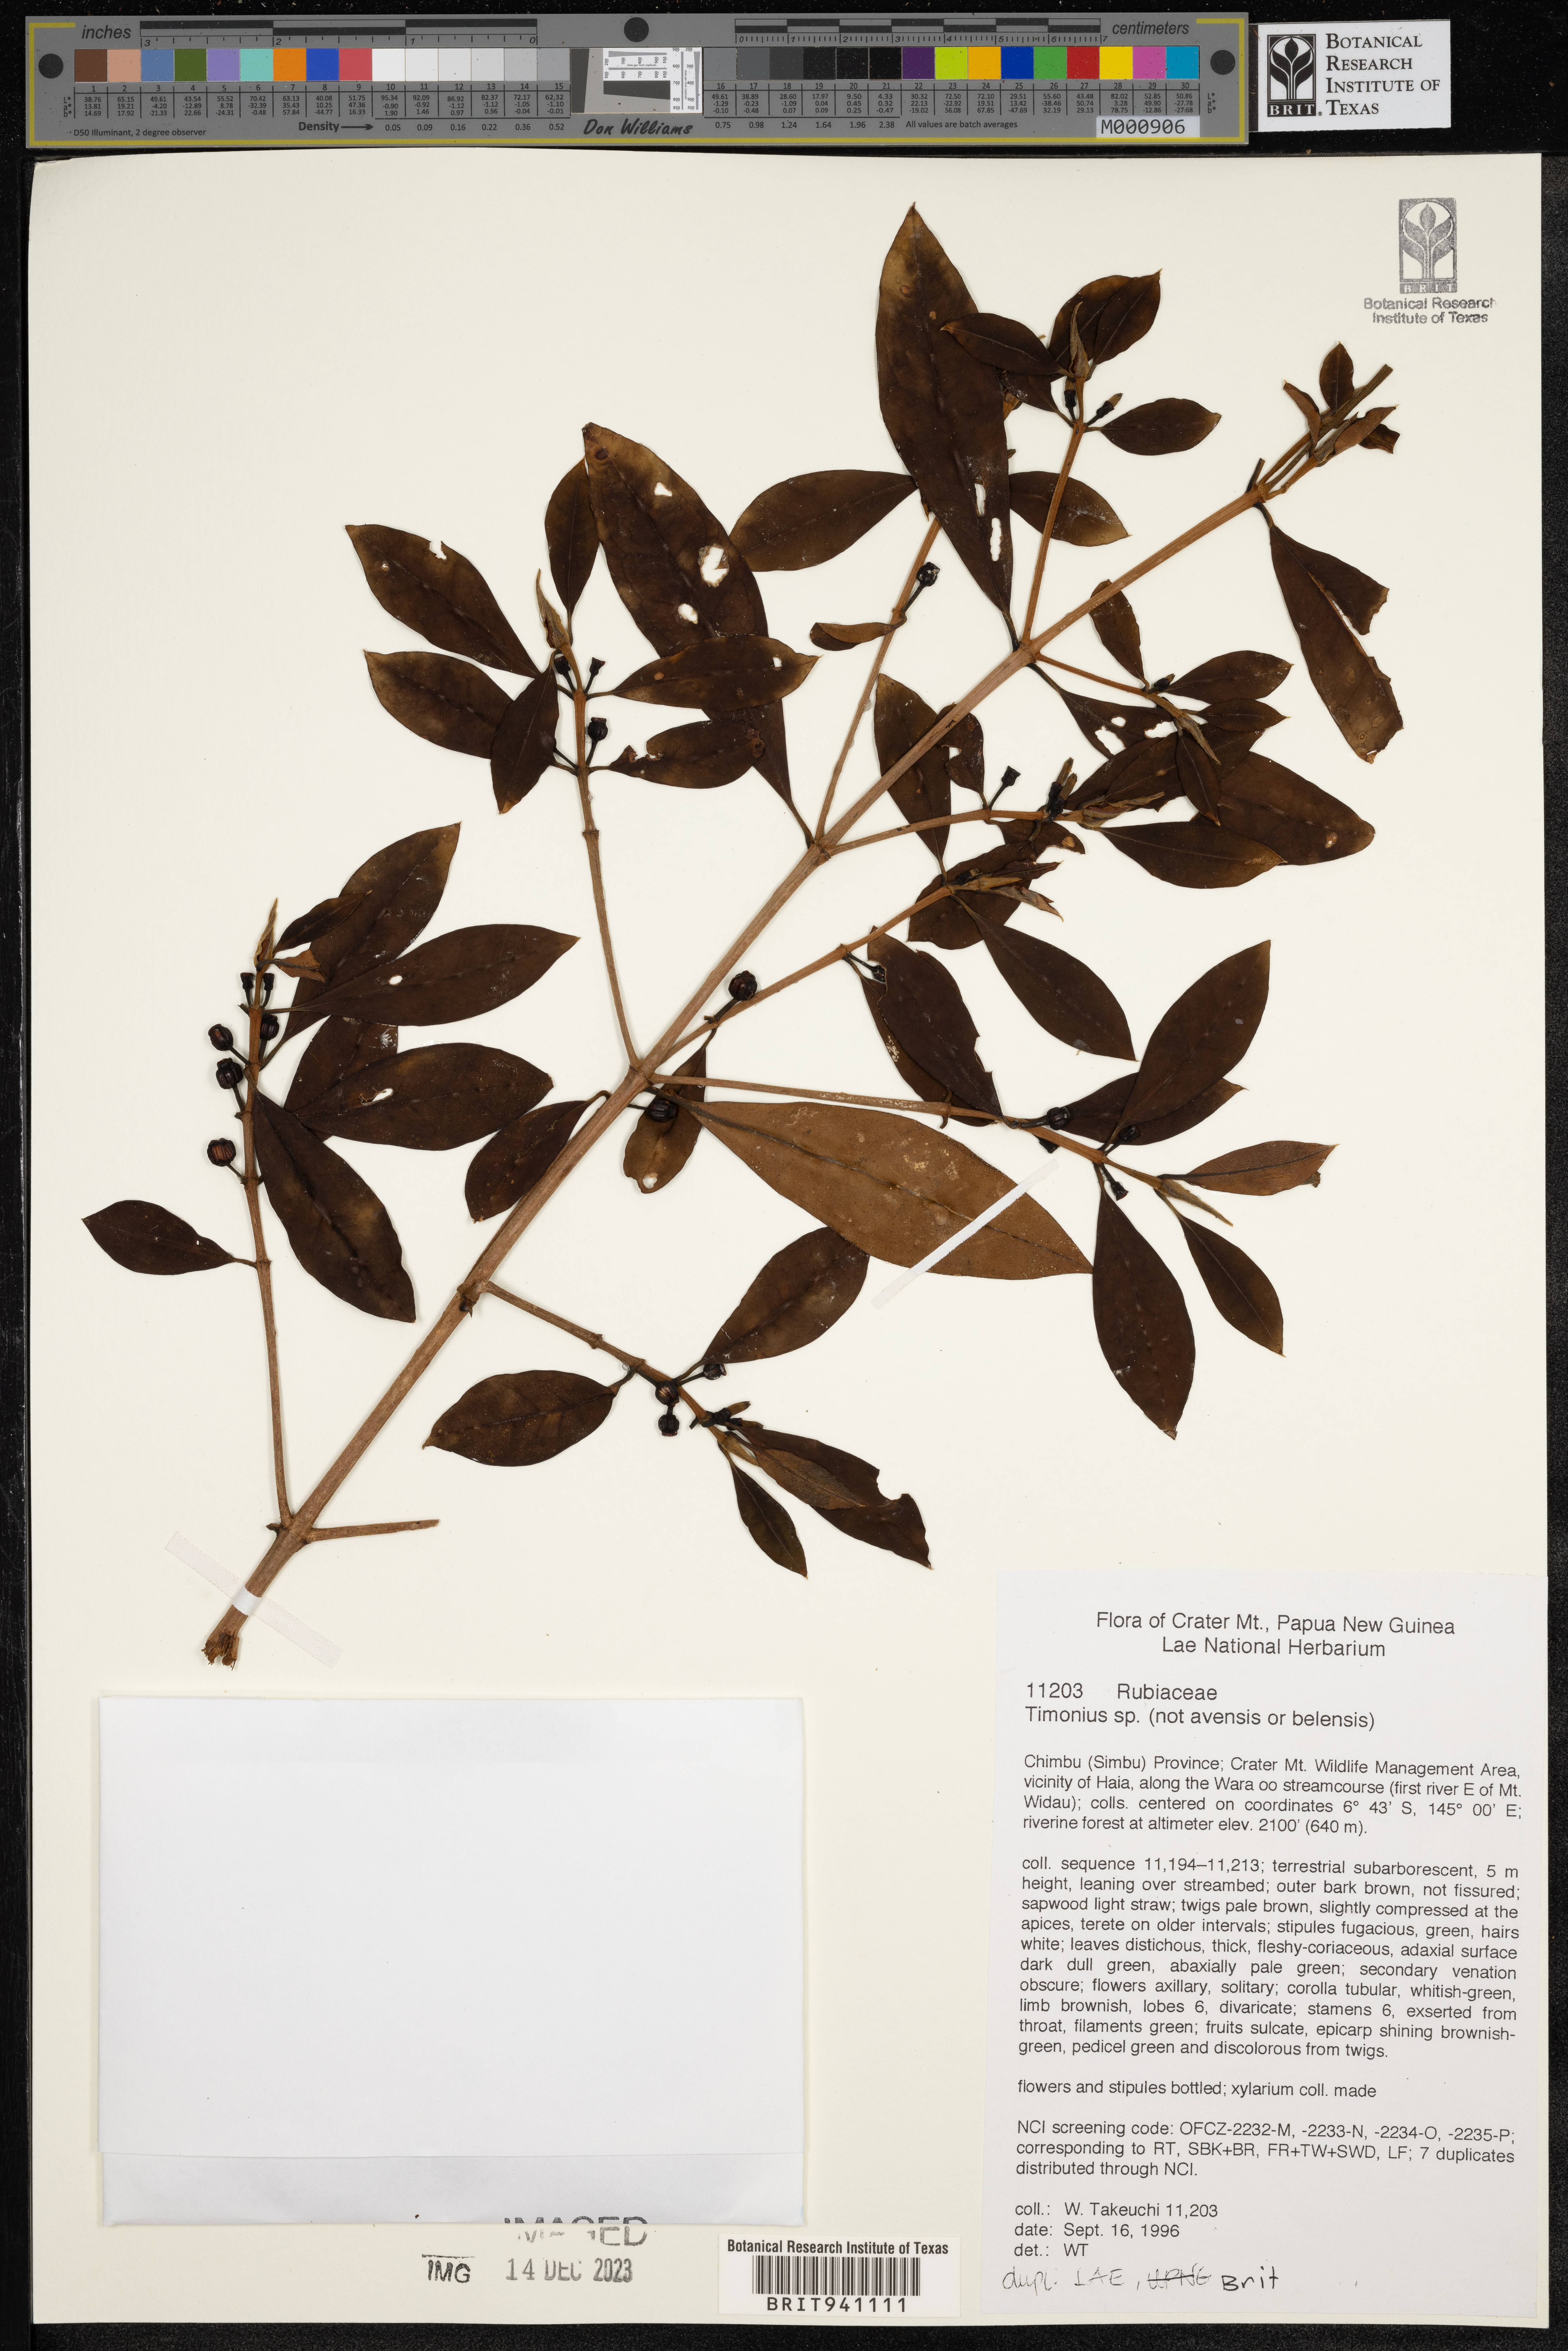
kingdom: Plantae
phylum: Tracheophyta
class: Magnoliopsida
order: Gentianales
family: Rubiaceae
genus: Timonius
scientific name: Timonius
